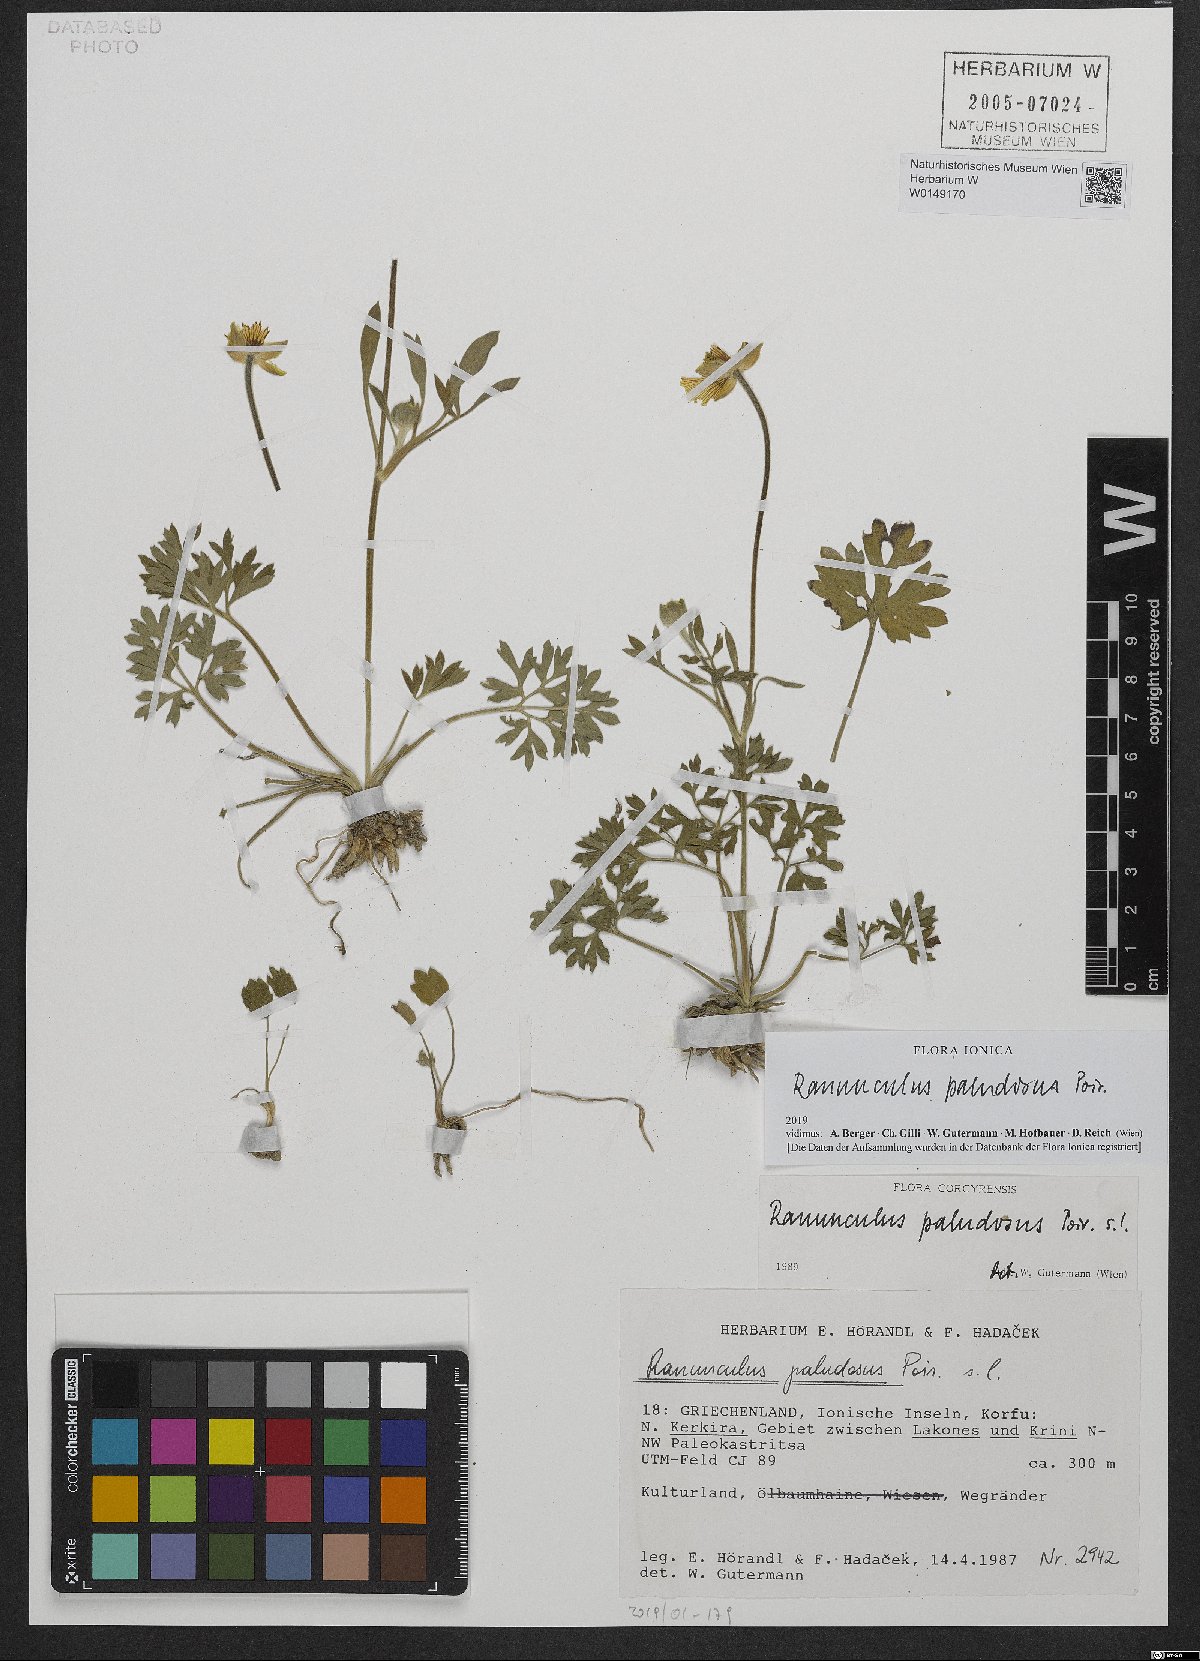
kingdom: Plantae
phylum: Tracheophyta
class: Magnoliopsida
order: Ranunculales
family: Ranunculaceae
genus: Ranunculus
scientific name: Ranunculus paludosus
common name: Jersey buttercup
